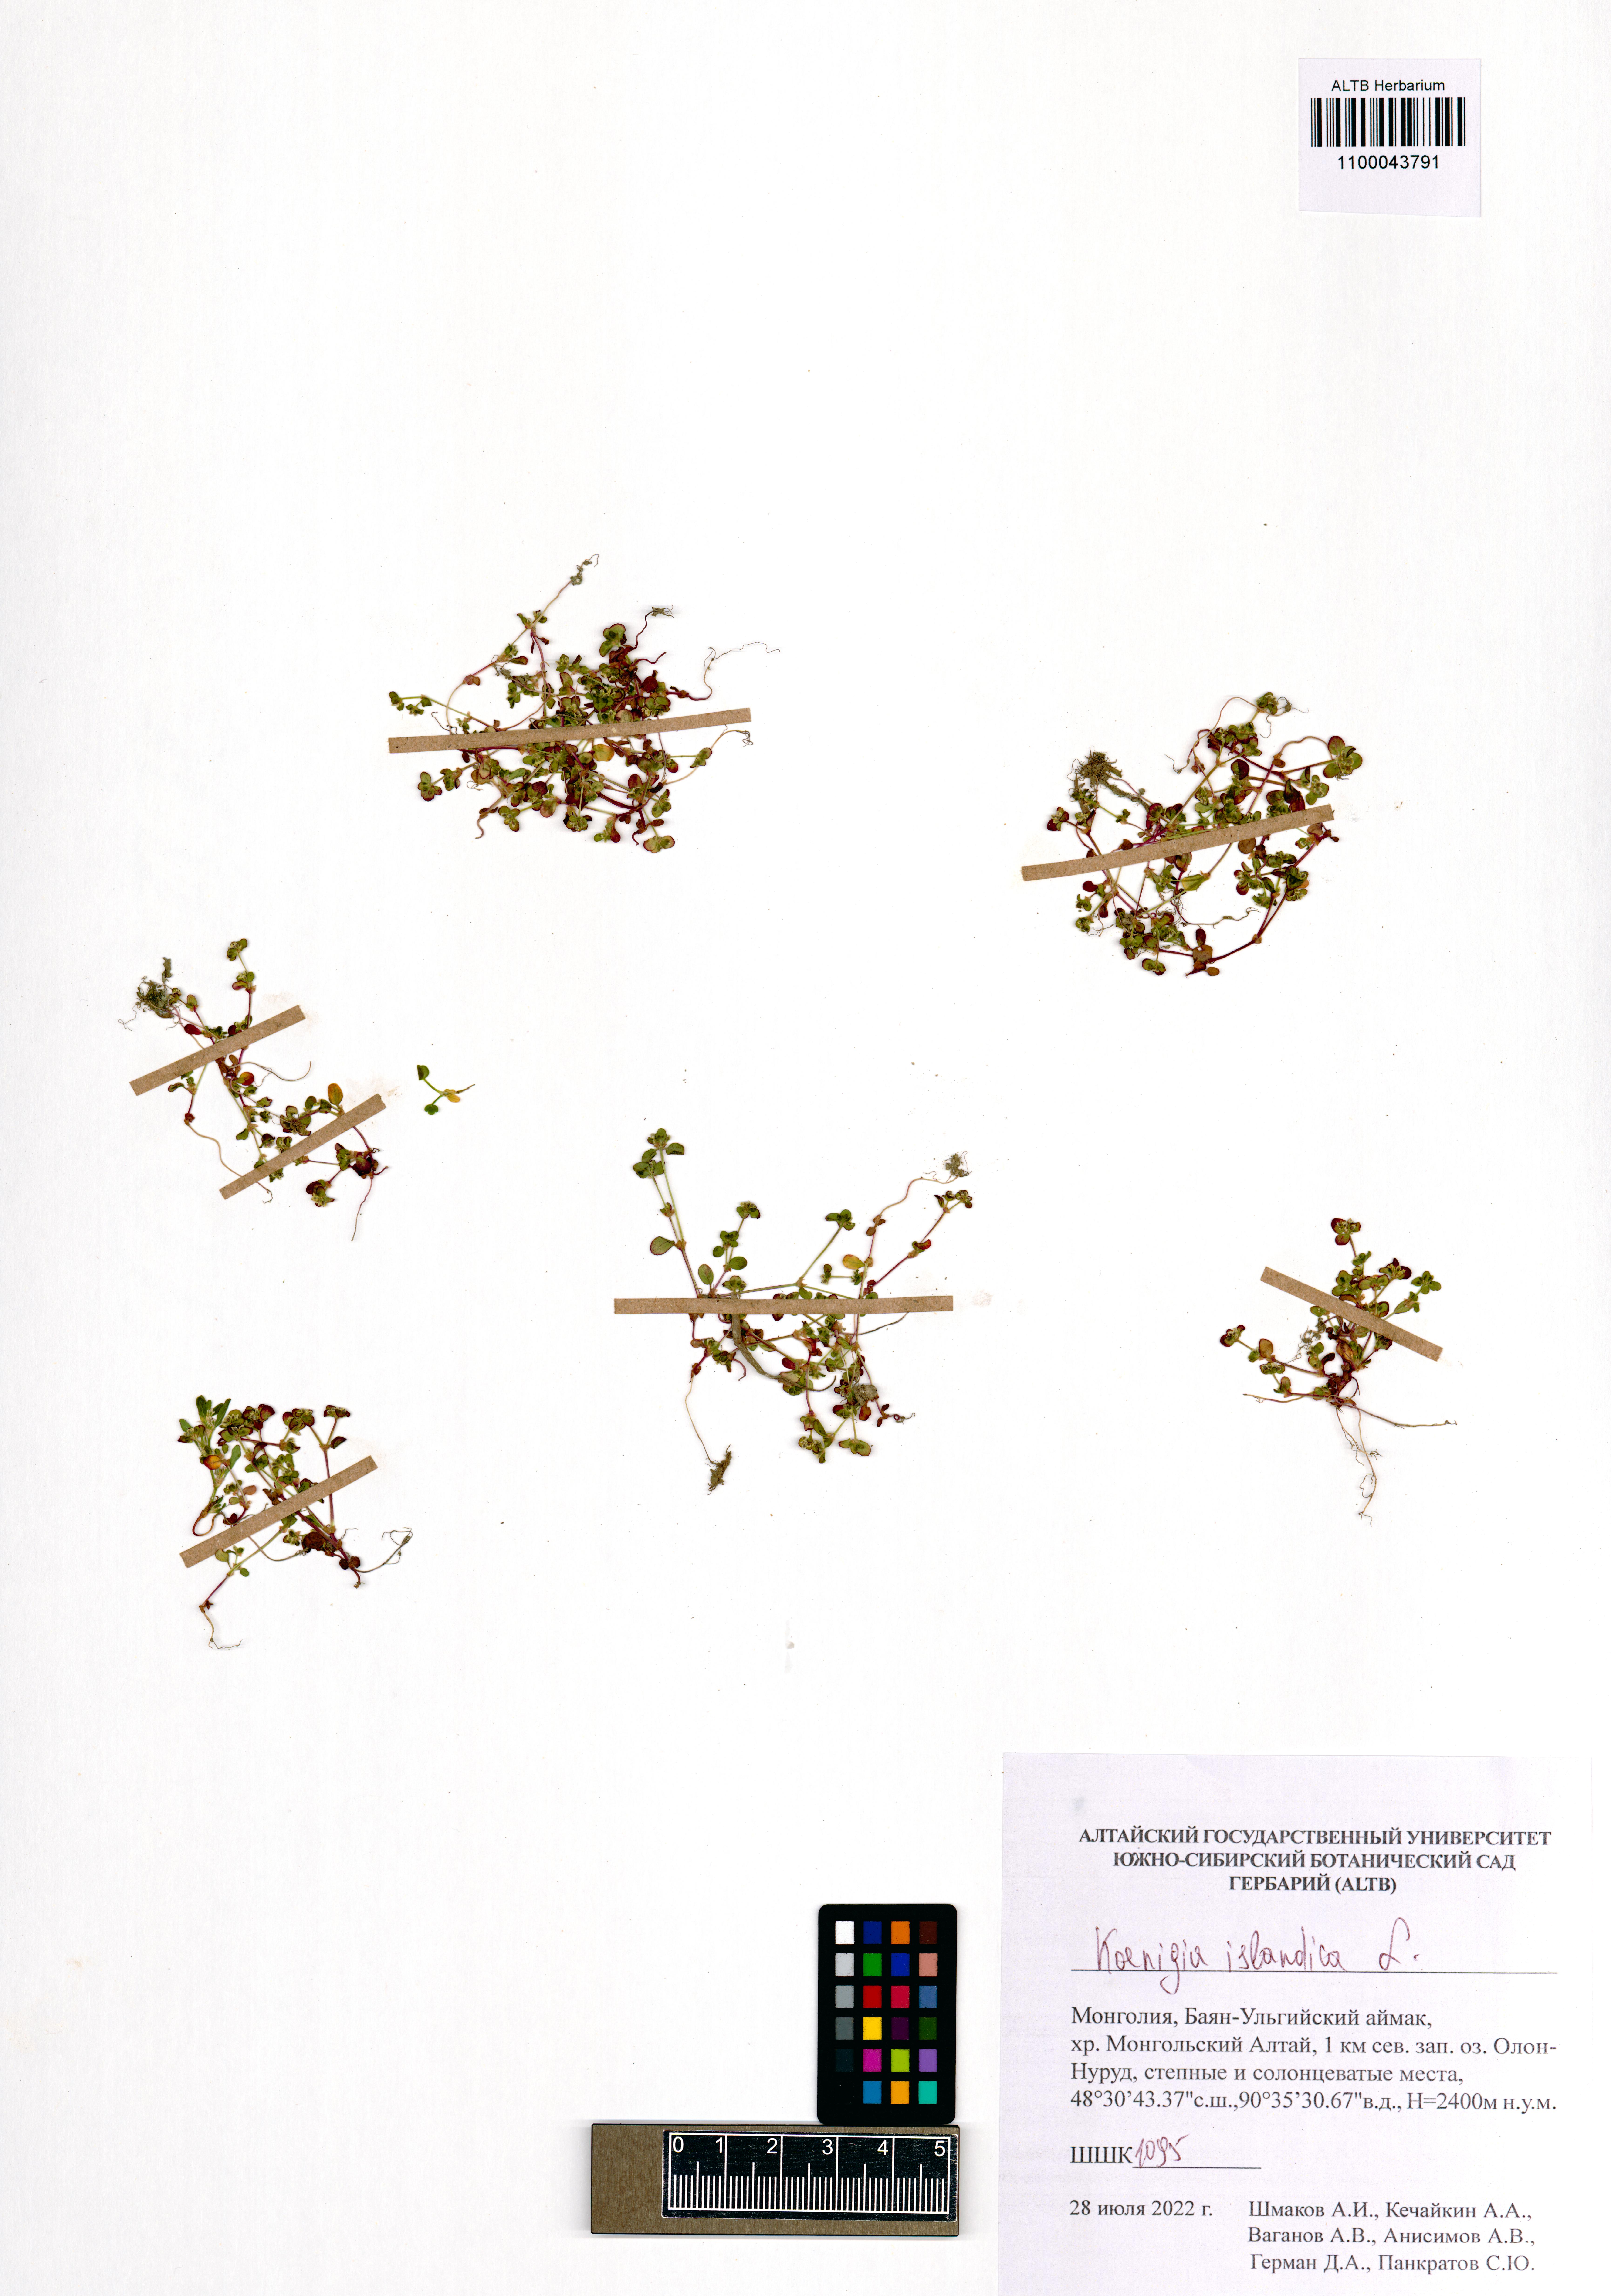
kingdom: Plantae
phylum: Tracheophyta
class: Magnoliopsida
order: Caryophyllales
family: Polygonaceae
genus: Koenigia
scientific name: Koenigia islandica
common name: Iceland-purslane
